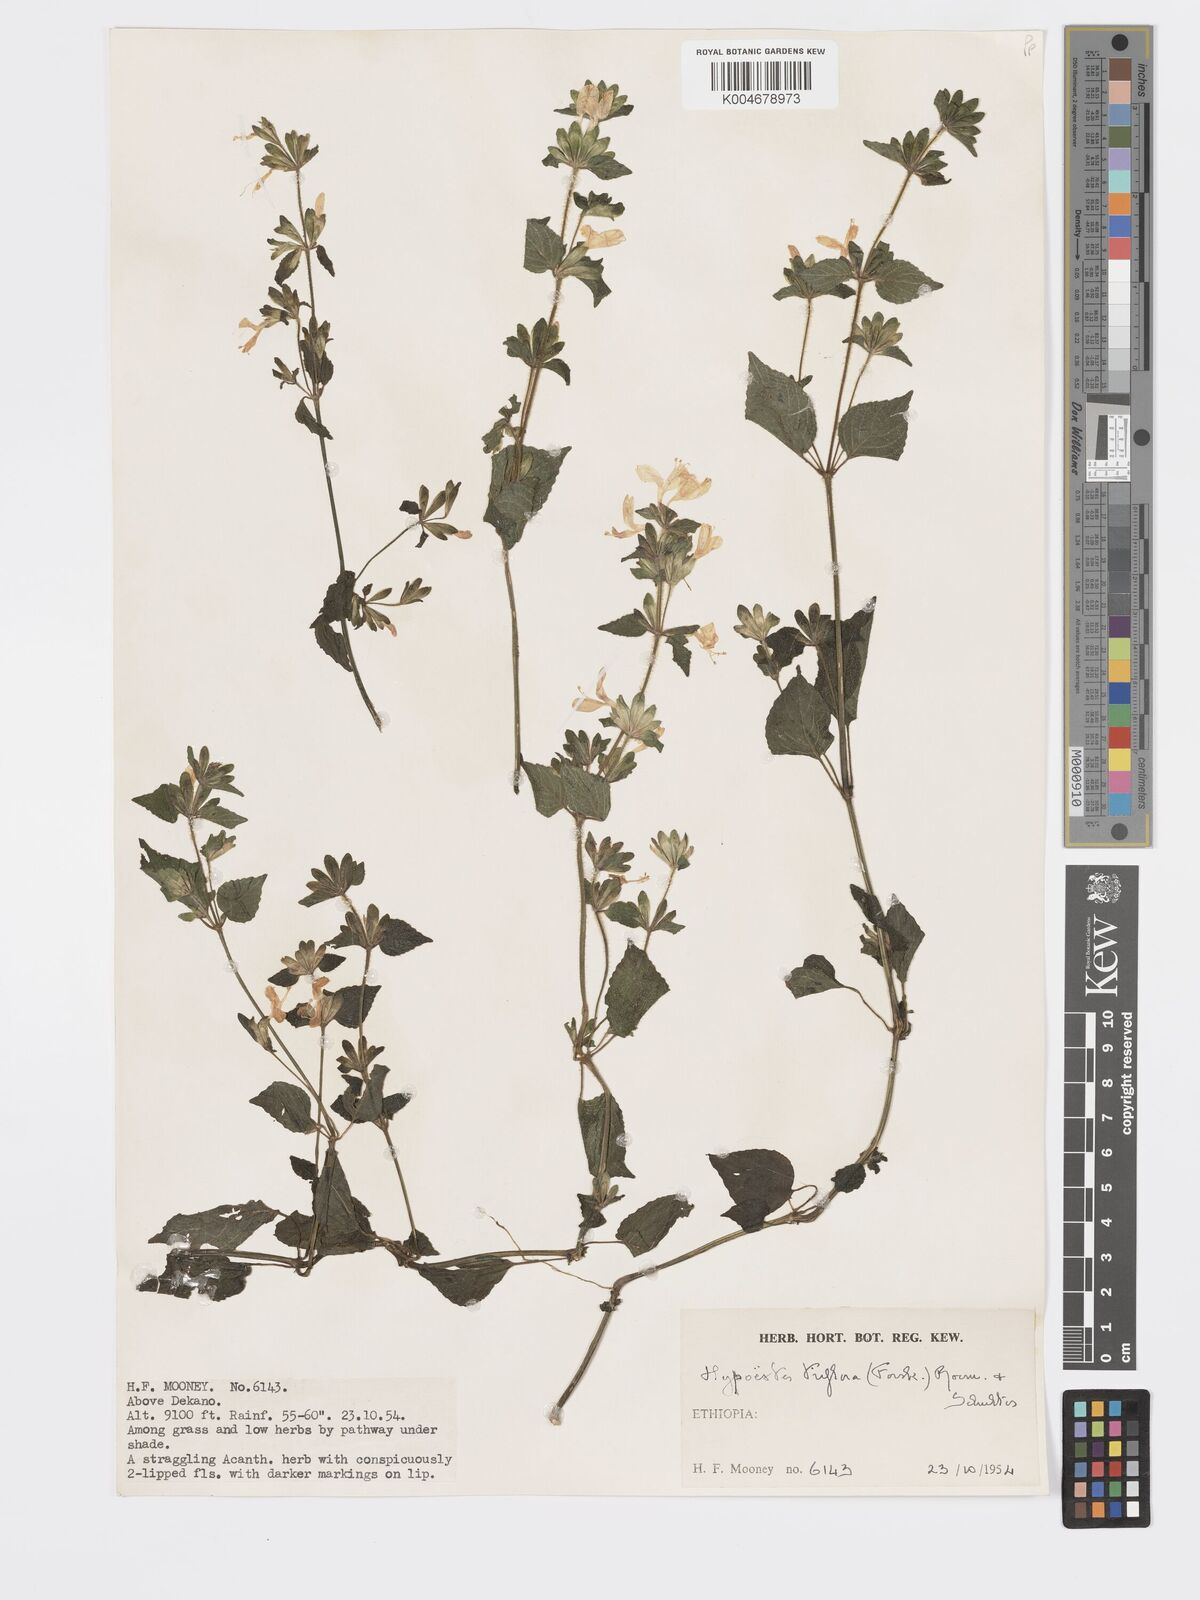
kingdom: Plantae
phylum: Tracheophyta
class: Magnoliopsida
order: Lamiales
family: Acanthaceae
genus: Hypoestes
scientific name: Hypoestes triflora
